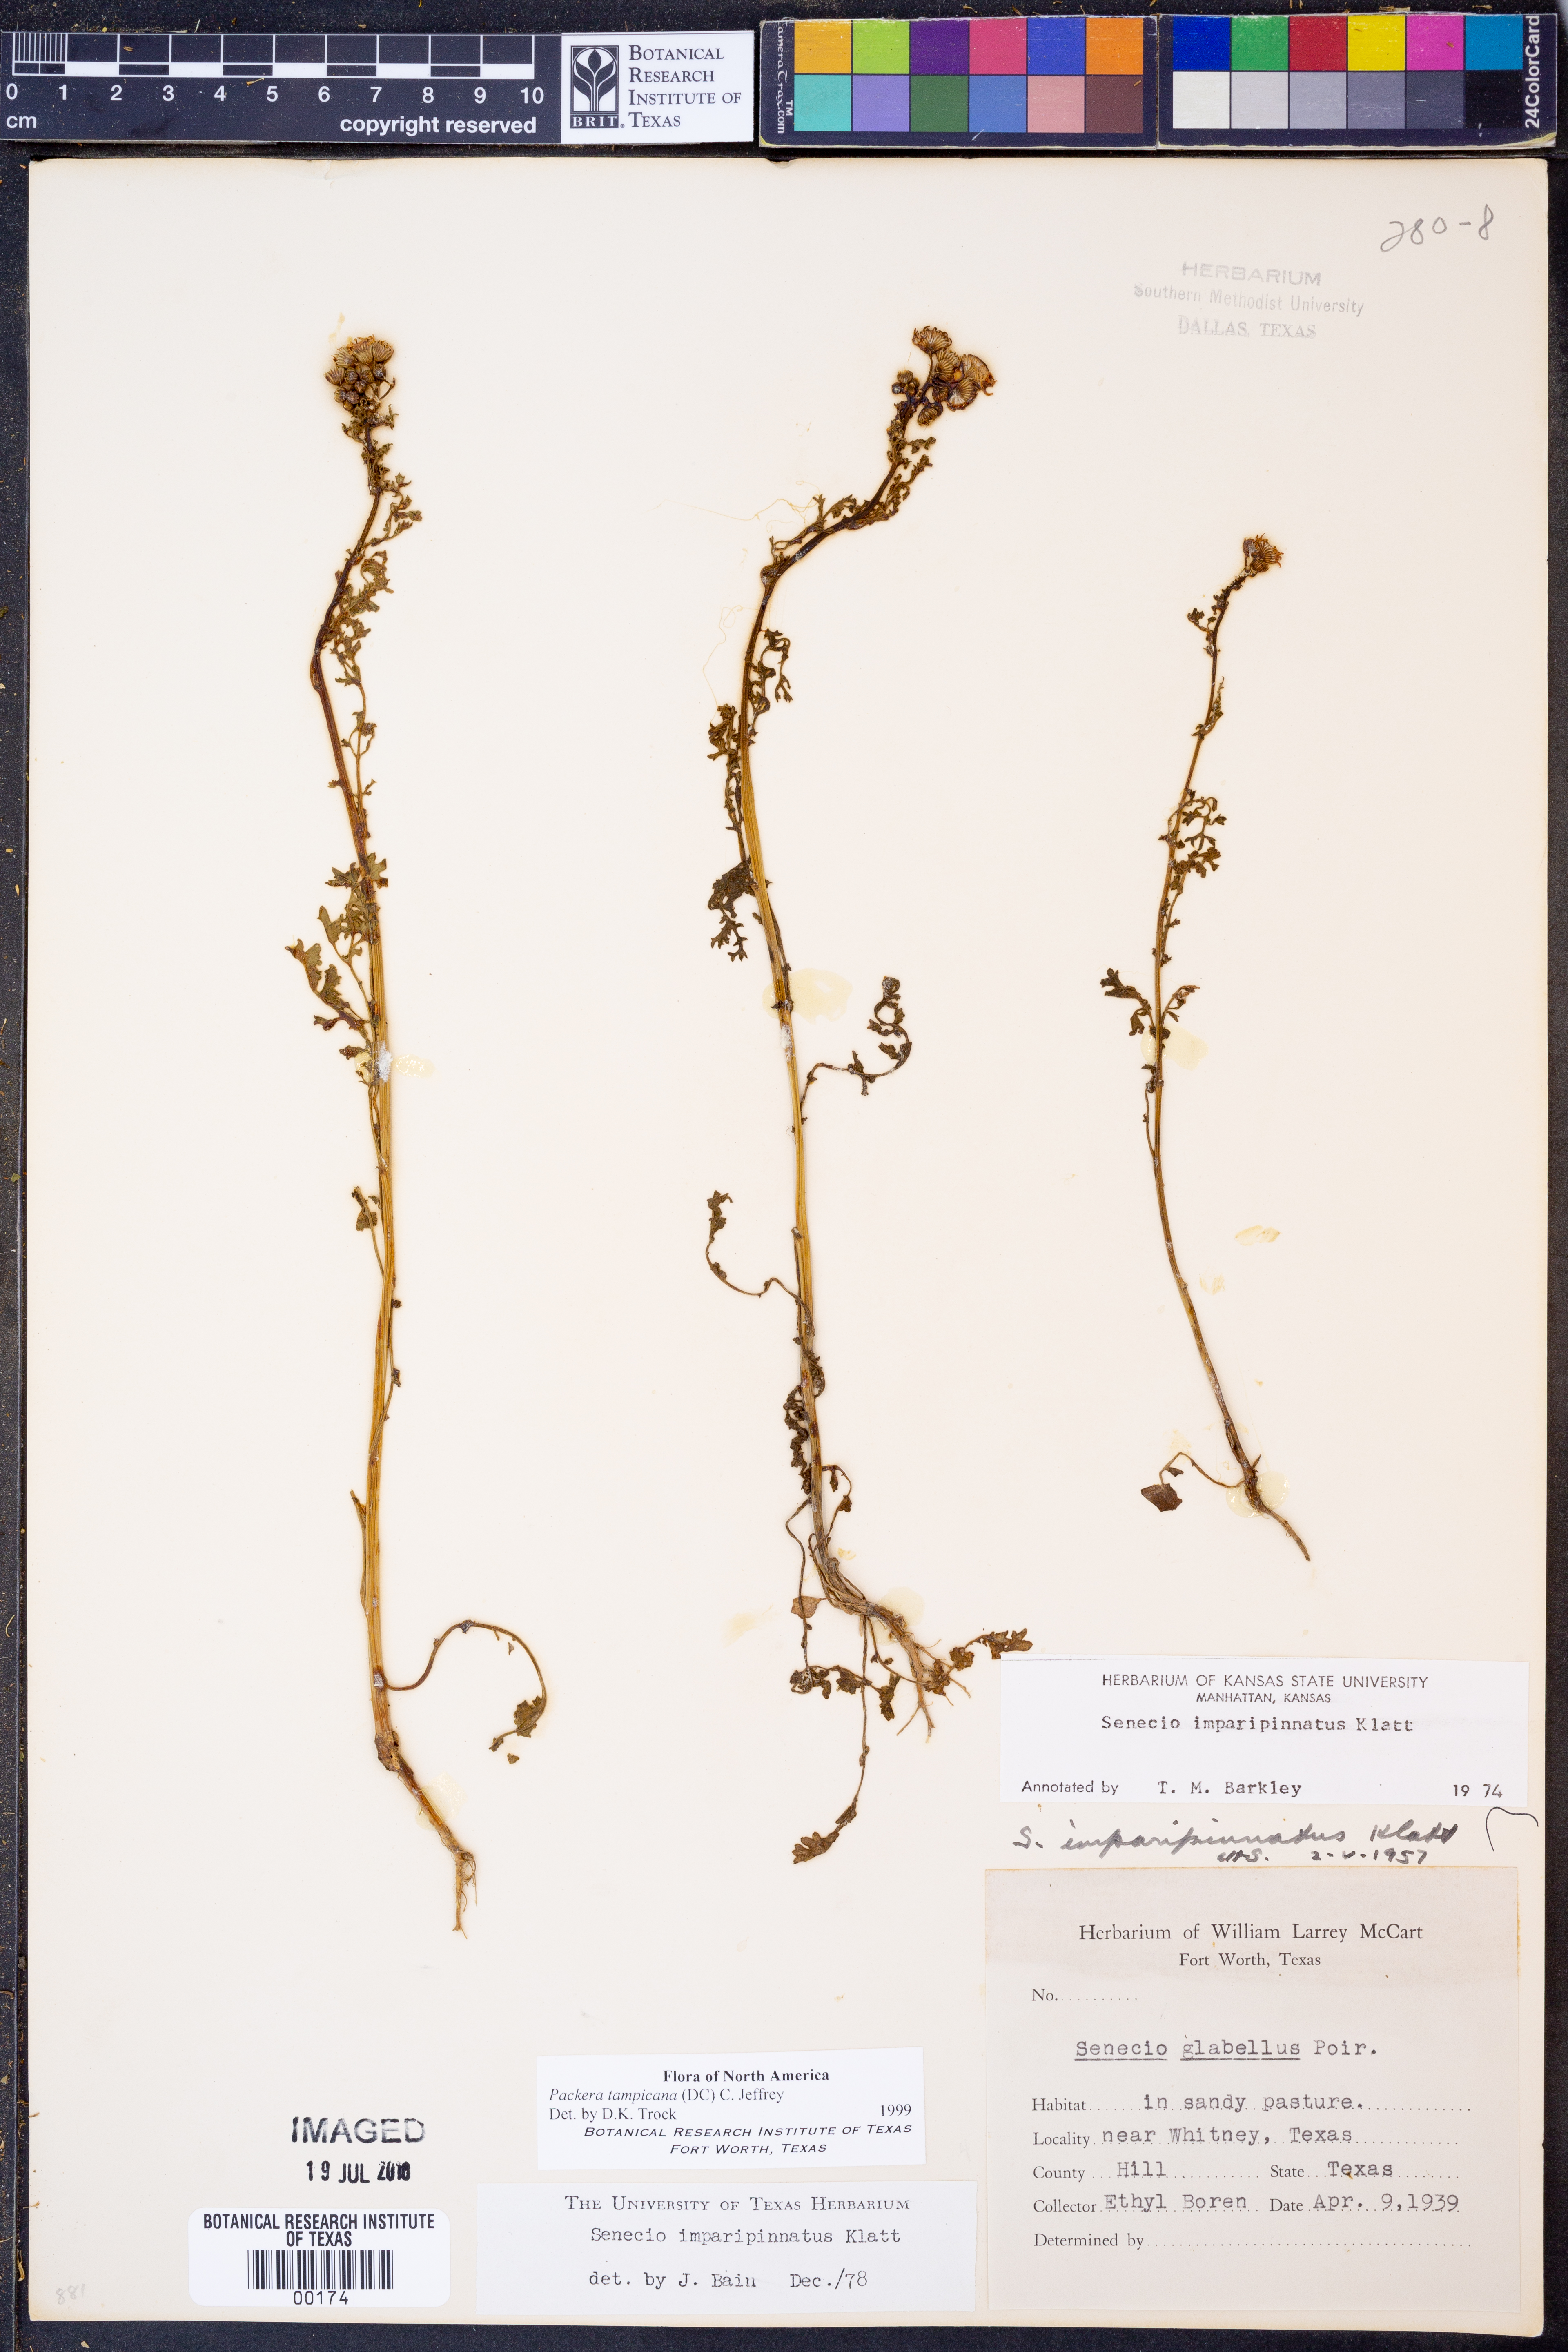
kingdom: Plantae
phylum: Tracheophyta
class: Magnoliopsida
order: Asterales
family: Asteraceae
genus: Packera
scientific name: Packera tampicana
